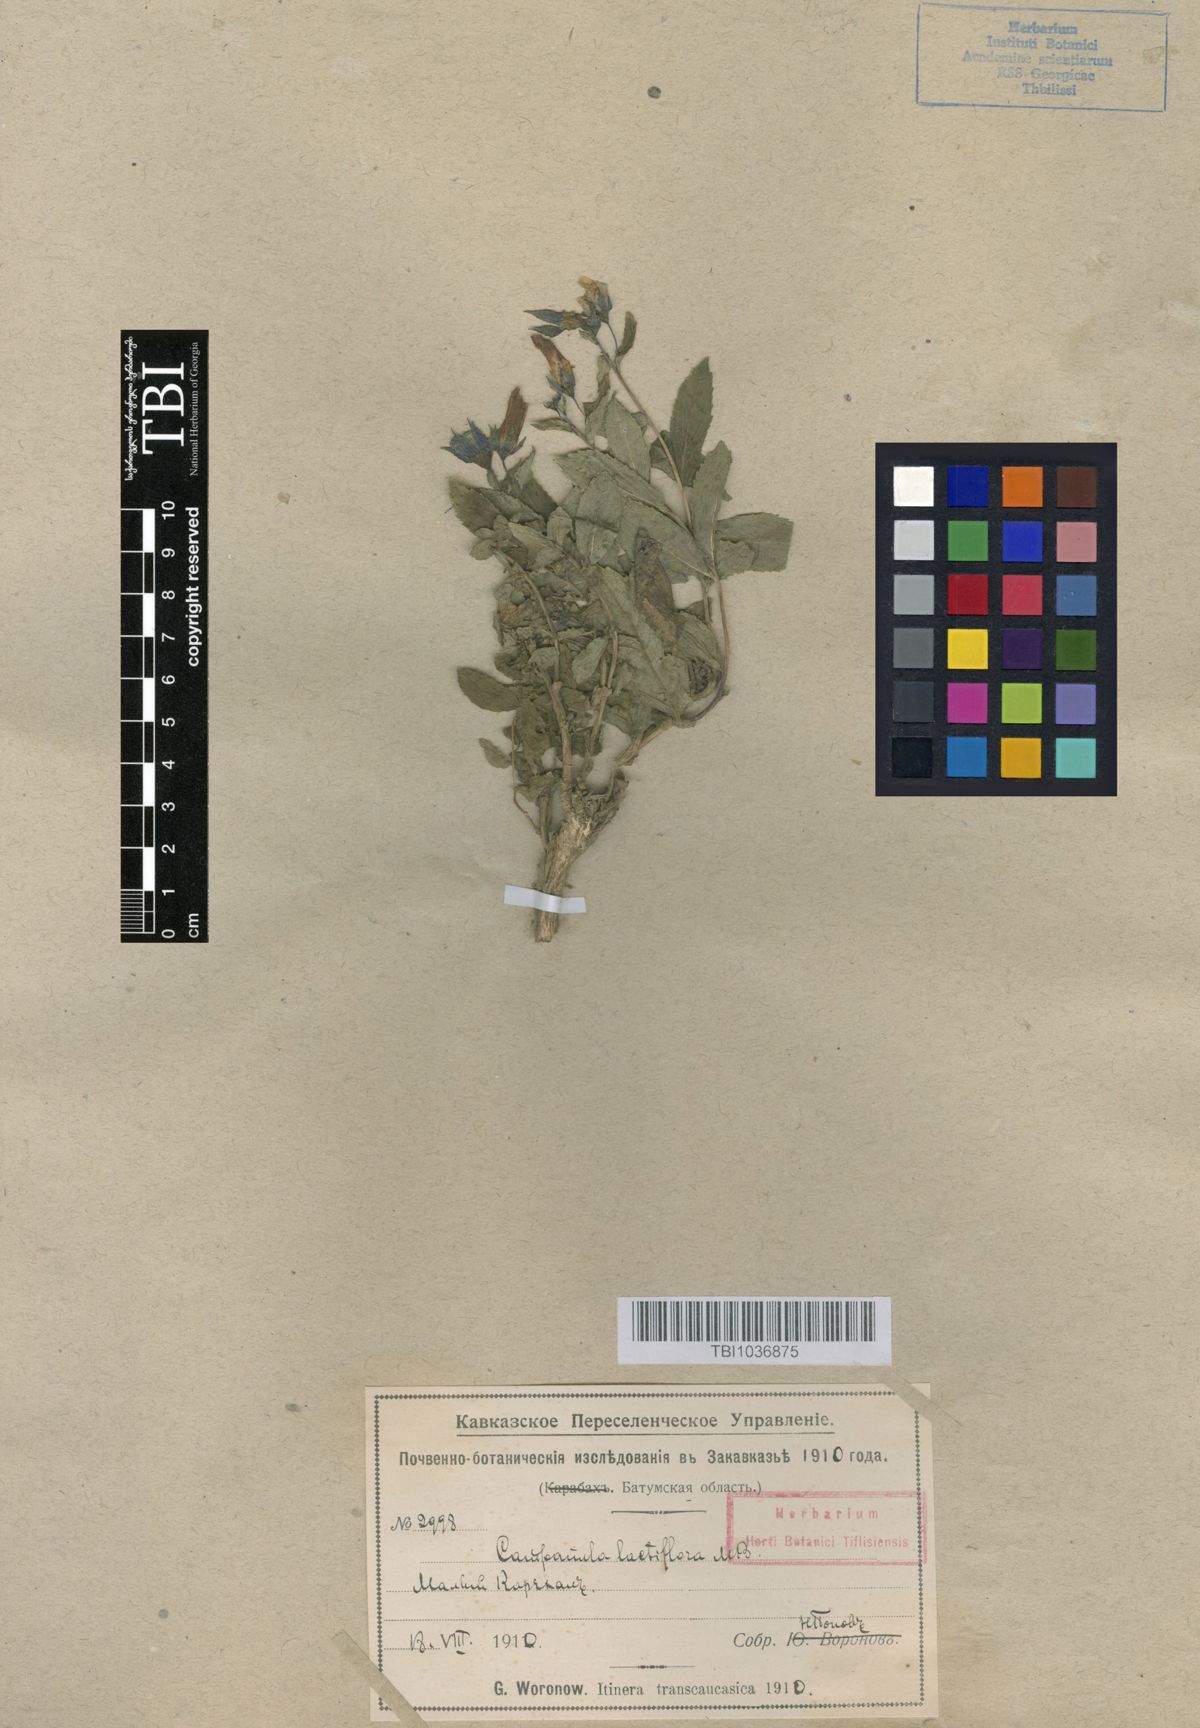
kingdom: Plantae
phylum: Tracheophyta
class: Magnoliopsida
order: Asterales
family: Campanulaceae
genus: Campanula
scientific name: Campanula lactiflora
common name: Milky bellflower
